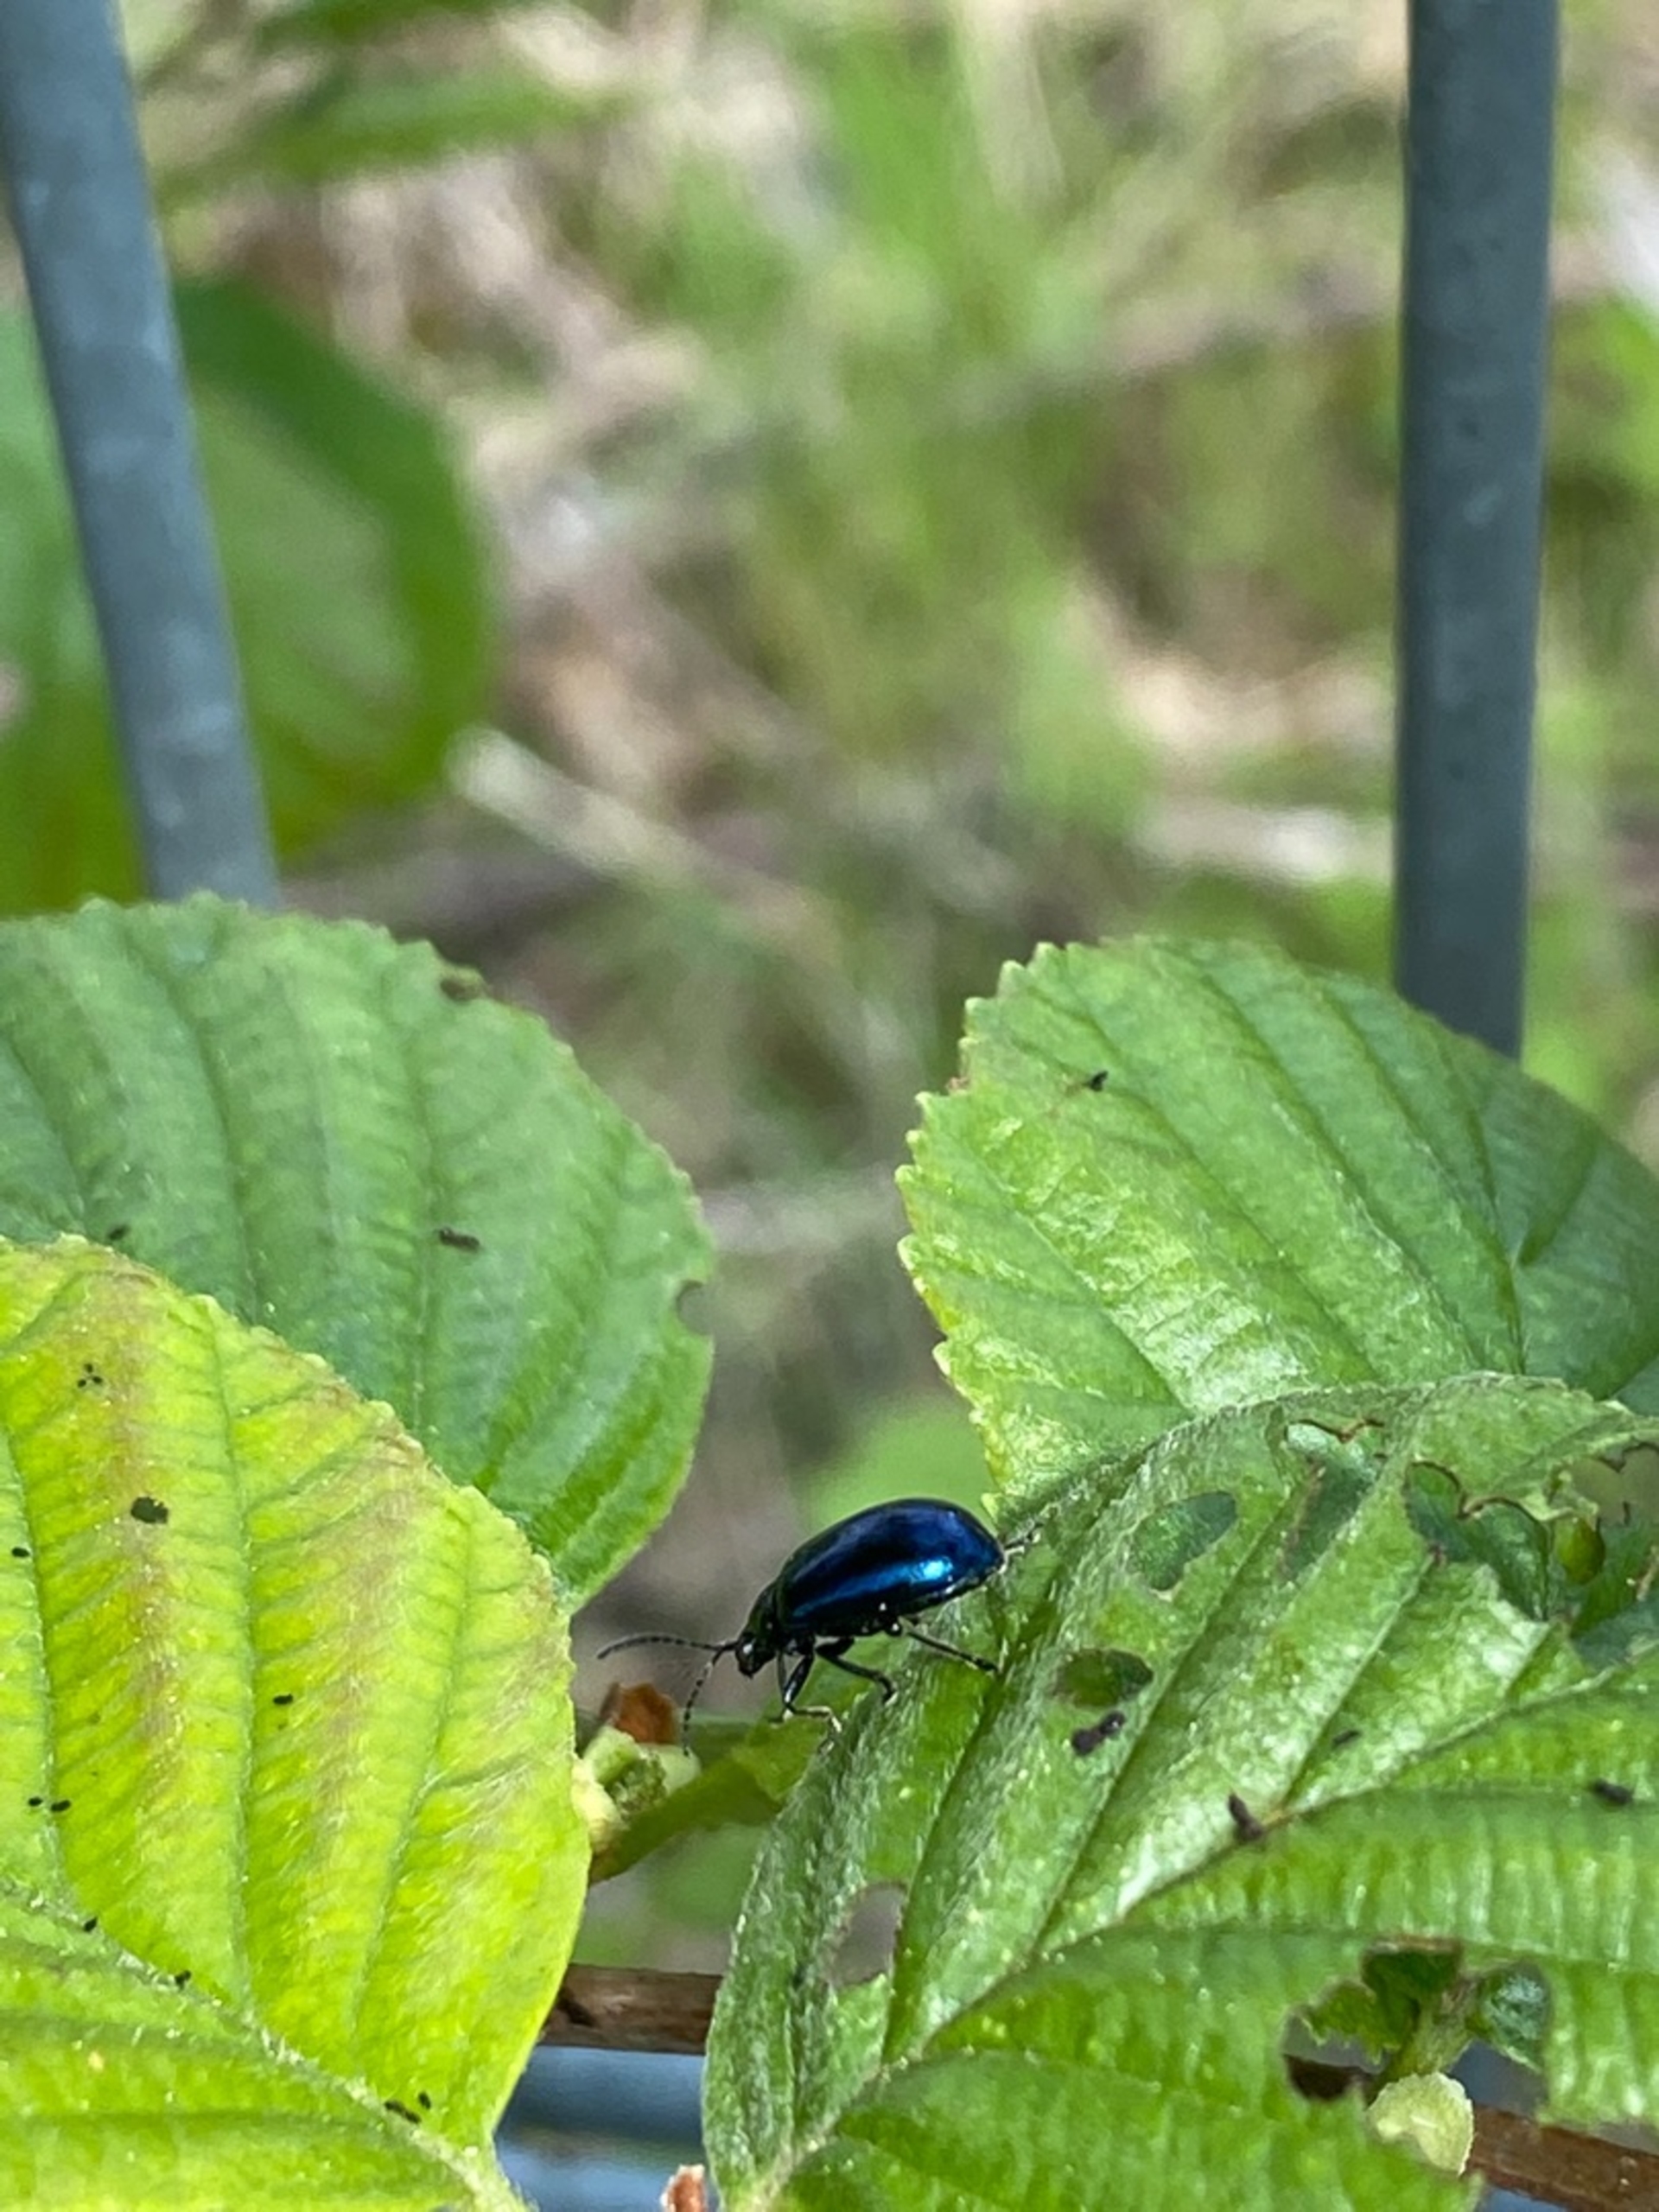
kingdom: Animalia
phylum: Arthropoda
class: Insecta
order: Coleoptera
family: Chrysomelidae
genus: Agelastica
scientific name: Agelastica alni
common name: Ellebladbille
